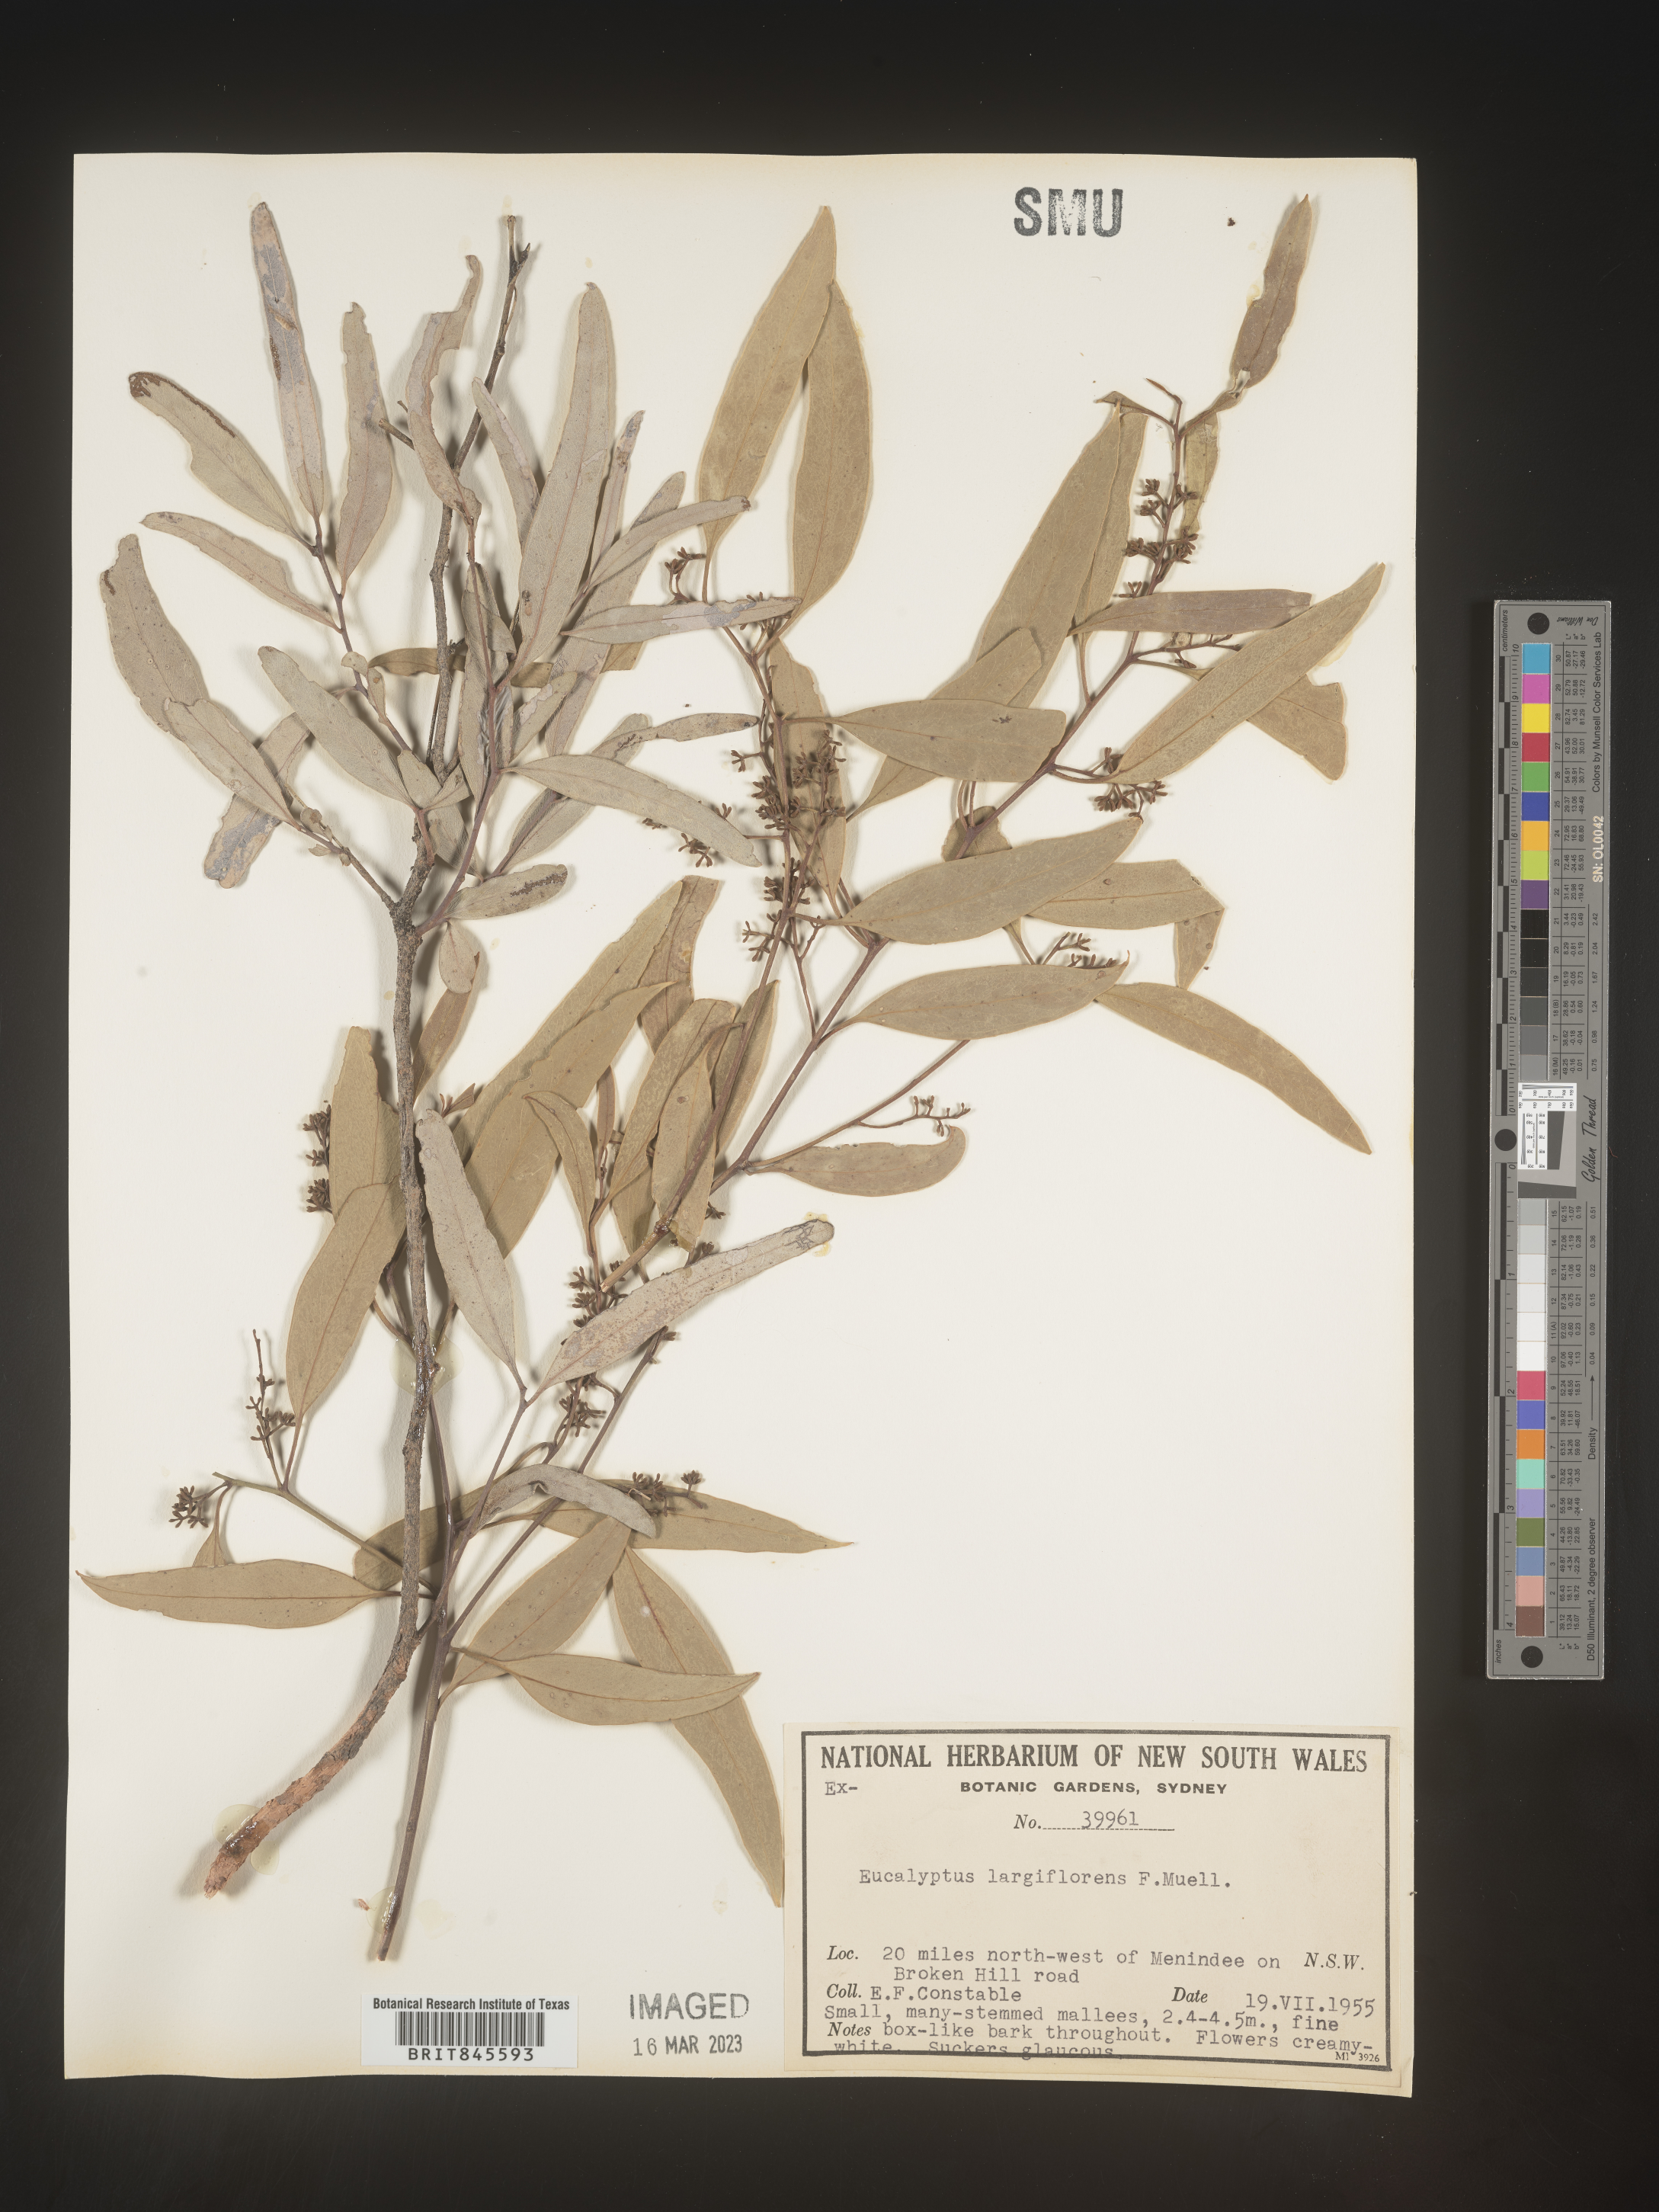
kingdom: Plantae
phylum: Tracheophyta
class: Magnoliopsida
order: Myrtales
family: Myrtaceae
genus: Eucalyptus
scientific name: Eucalyptus
